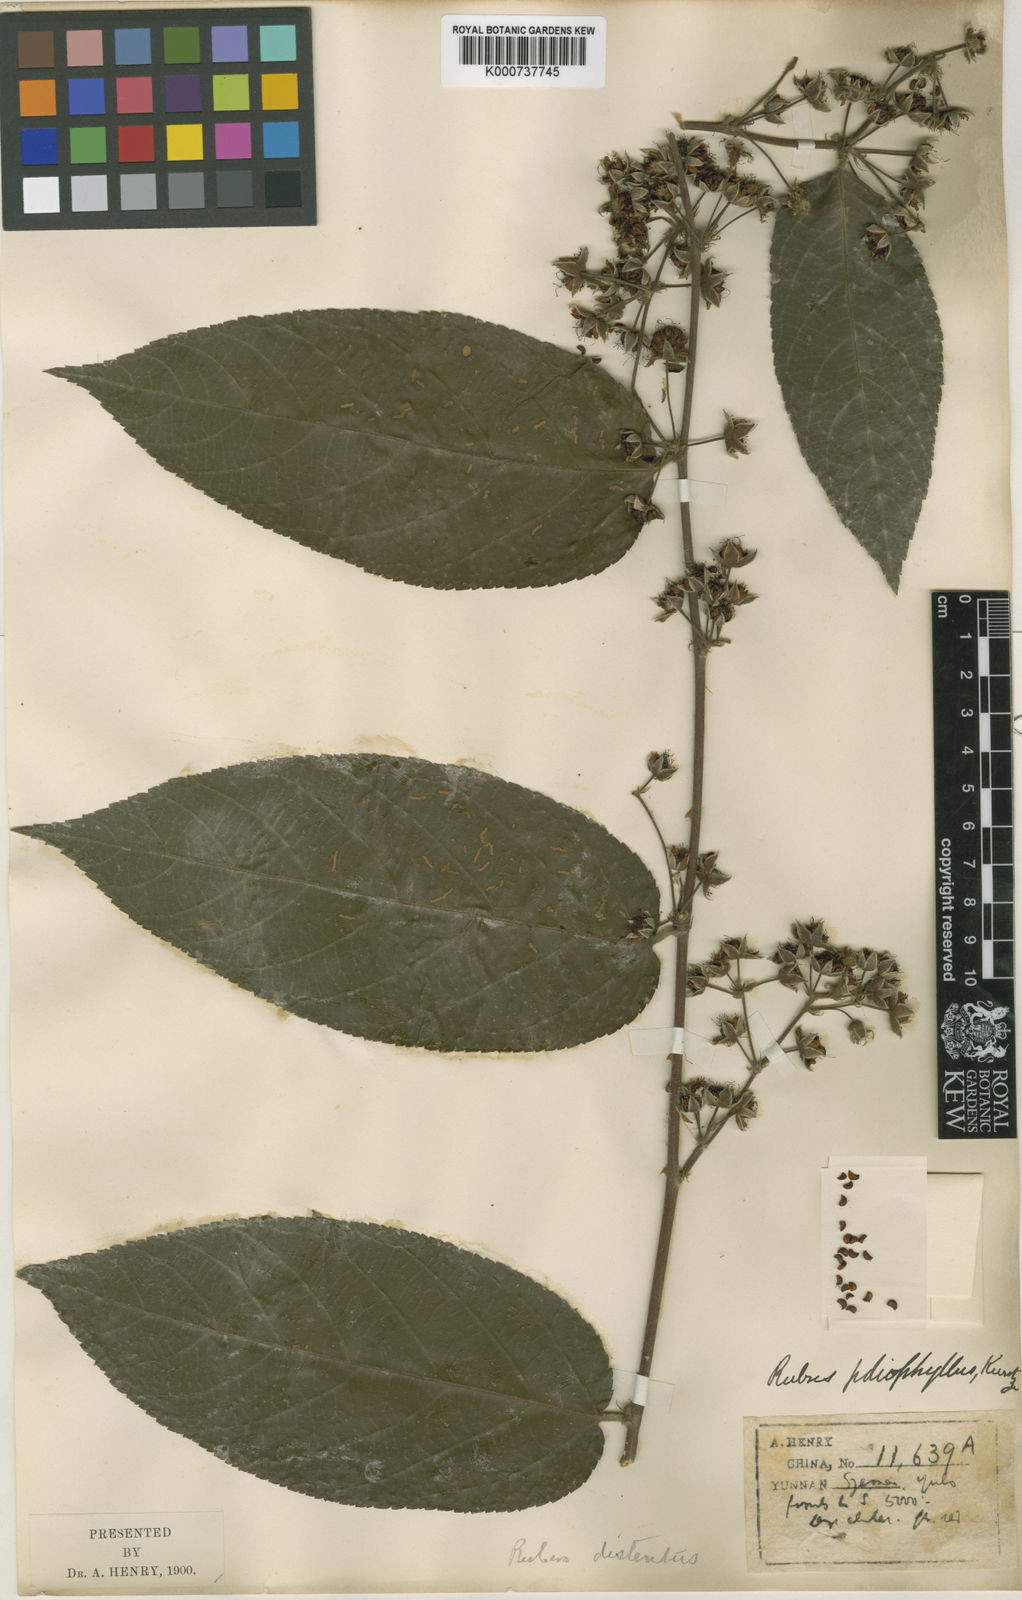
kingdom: Plantae
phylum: Tracheophyta
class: Magnoliopsida
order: Rosales
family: Rosaceae
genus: Rubus
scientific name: Rubus poliophyllus
